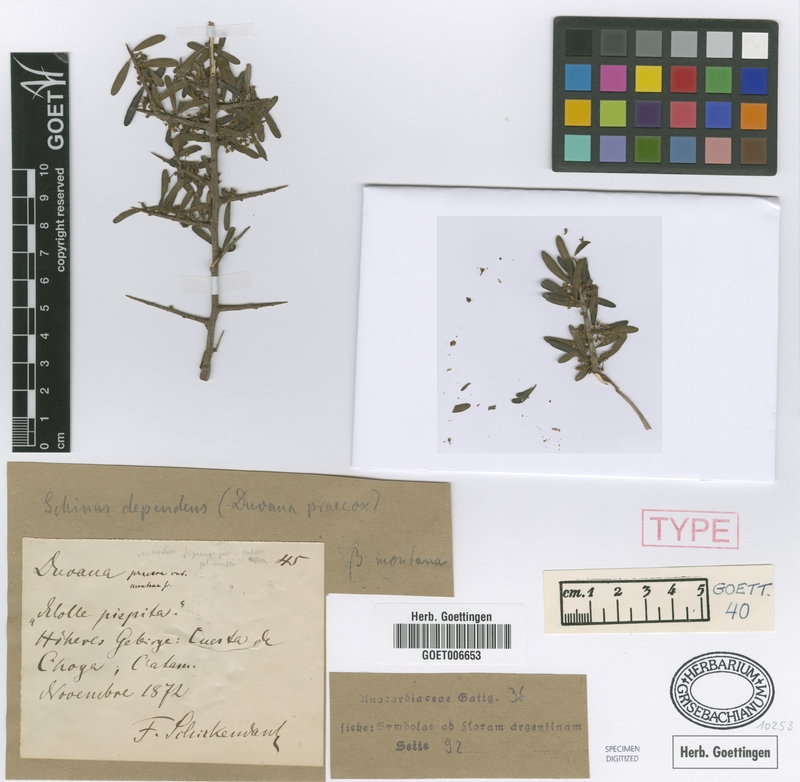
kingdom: Plantae
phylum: Tracheophyta
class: Magnoliopsida
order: Sapindales
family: Anacardiaceae
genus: Schinus
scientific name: Schinus polygama
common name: Hardee peppertree
